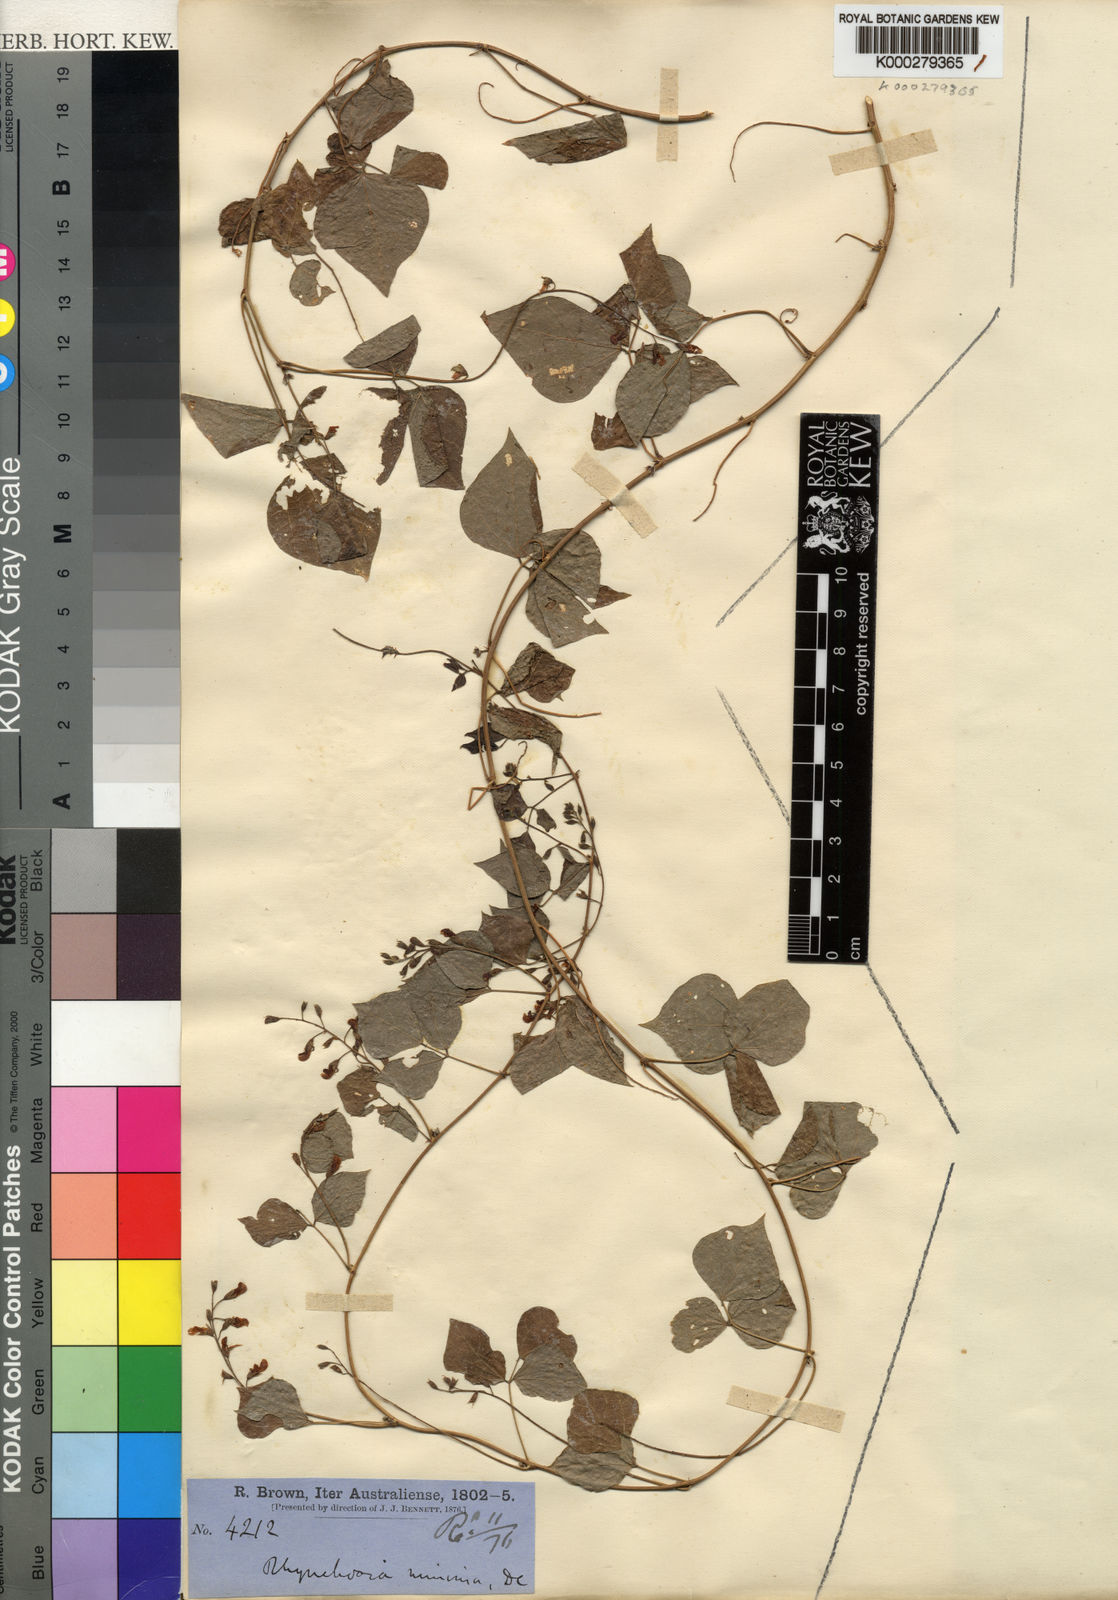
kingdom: Plantae
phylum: Tracheophyta
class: Magnoliopsida
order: Fabales
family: Fabaceae
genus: Rhynchosia
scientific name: Rhynchosia minima
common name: Least snoutbean
